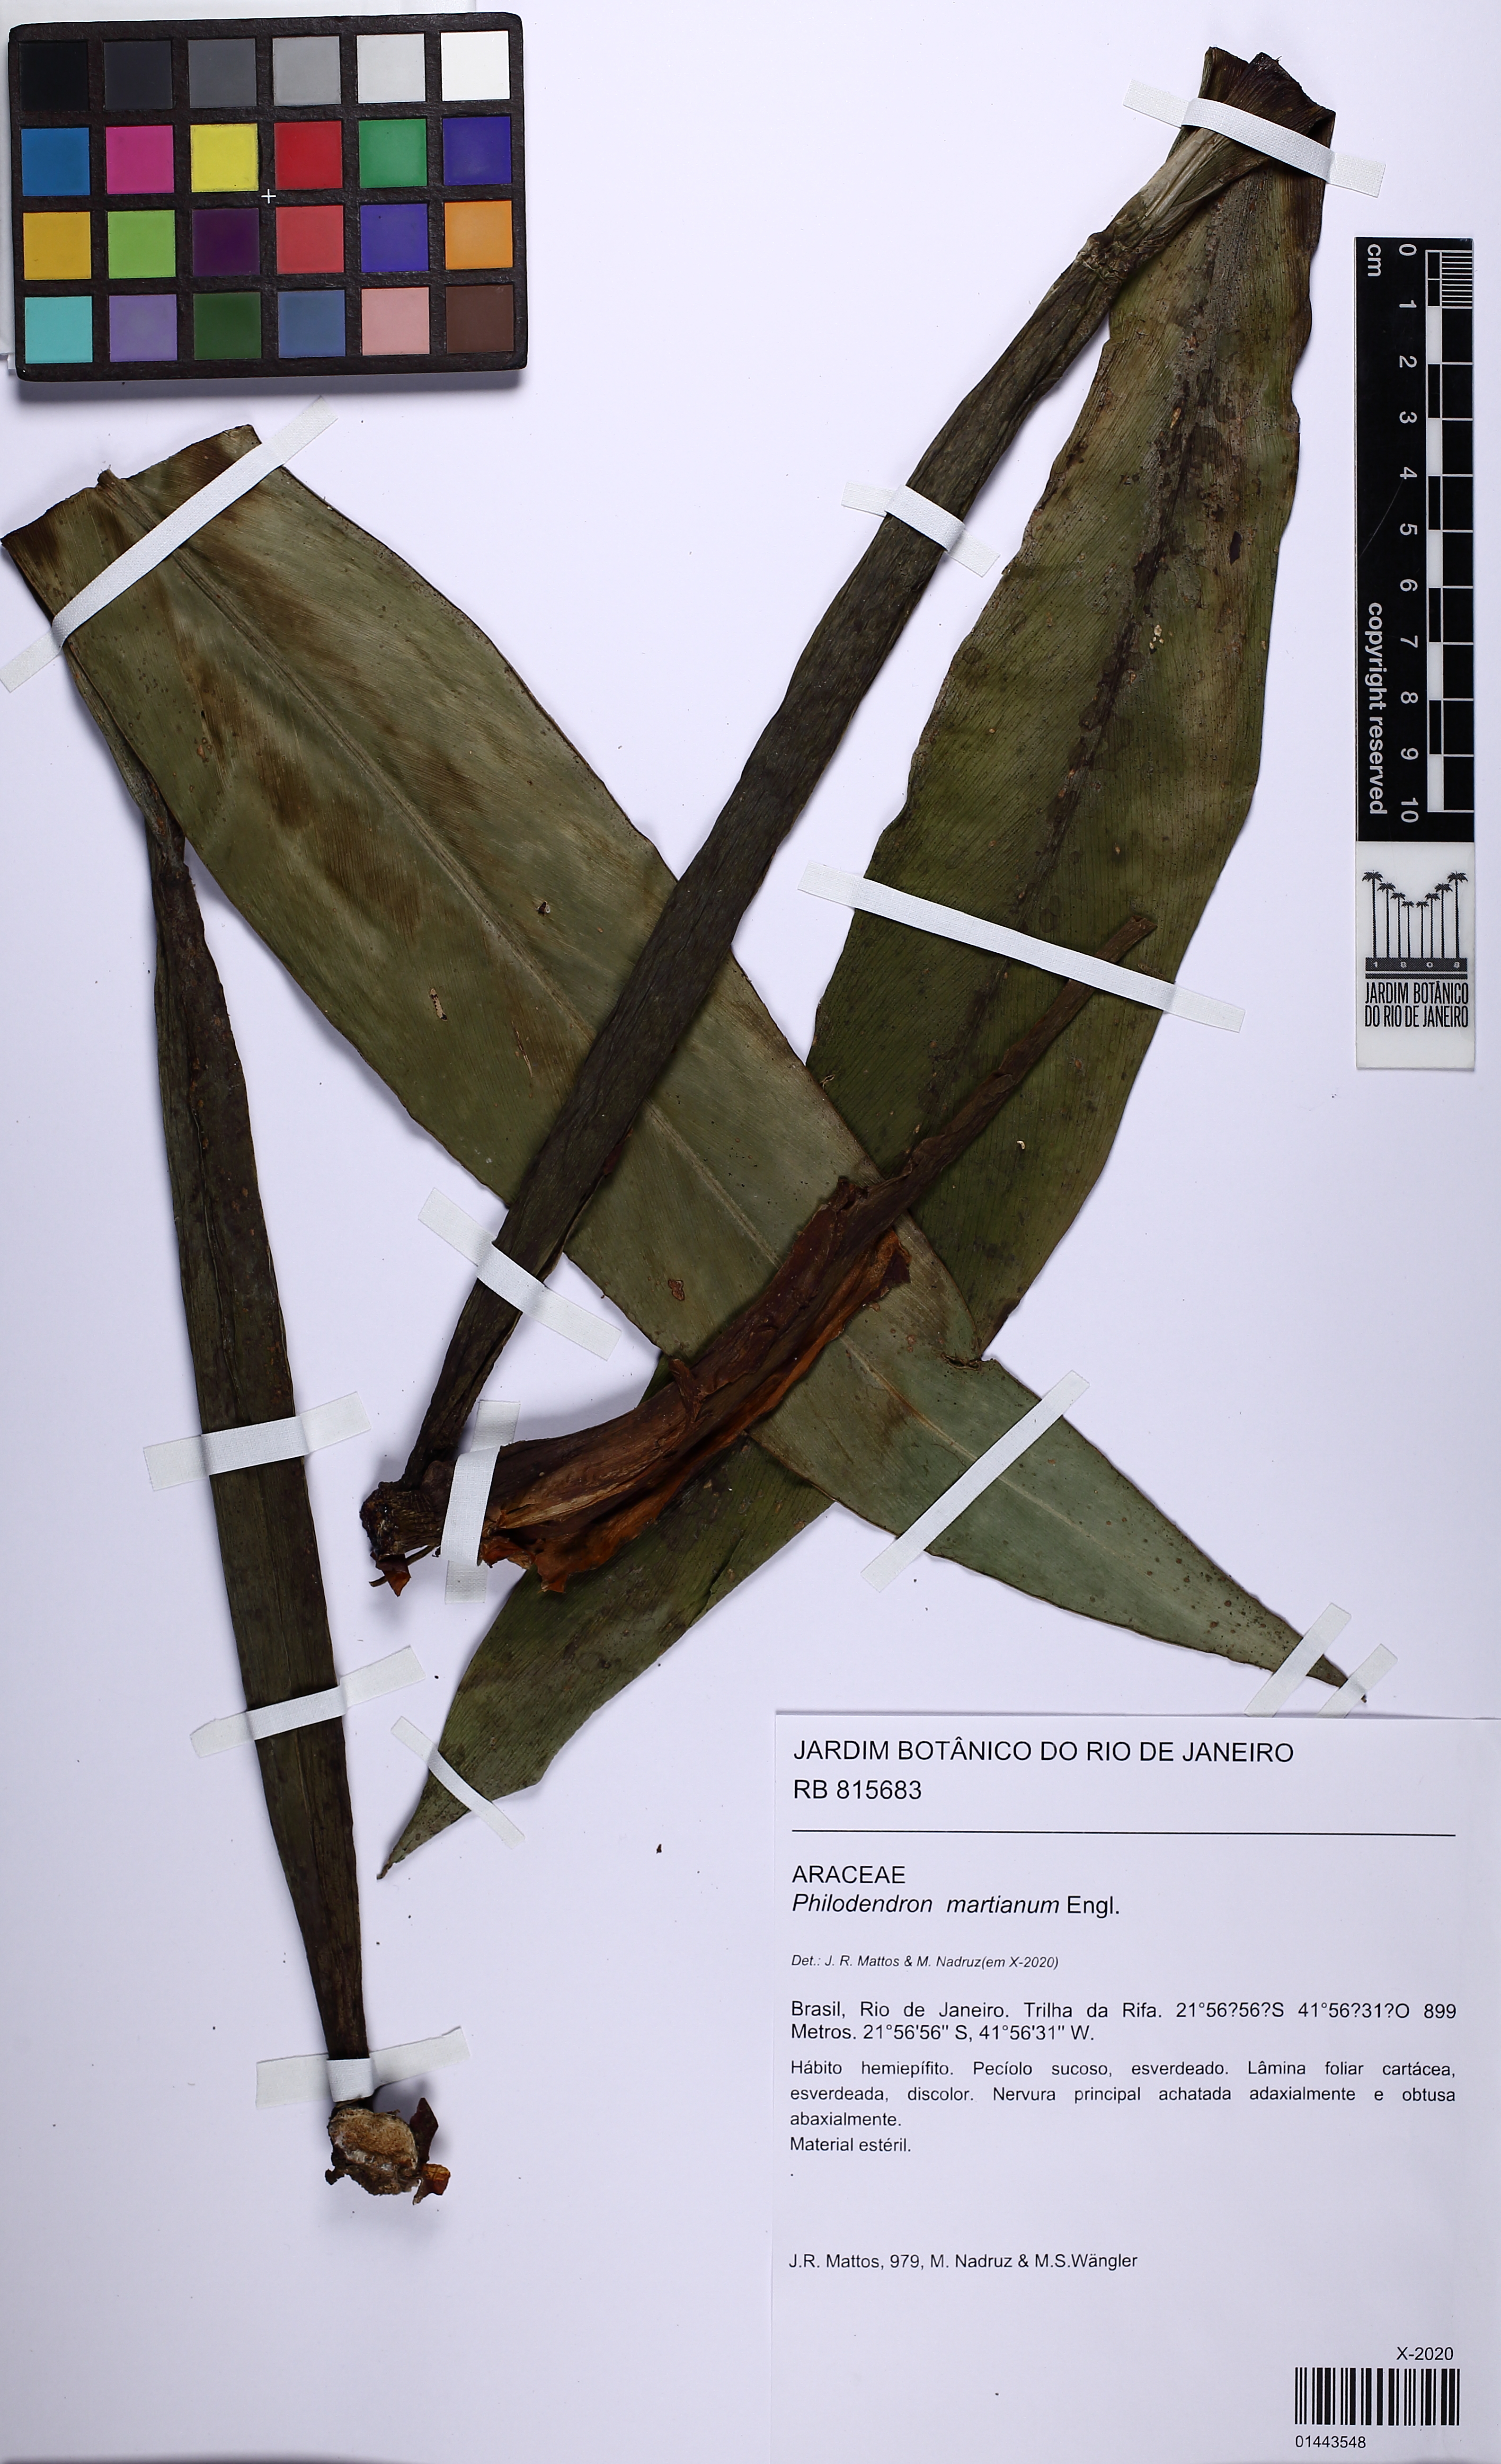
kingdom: Plantae
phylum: Tracheophyta
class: Liliopsida
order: Alismatales
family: Araceae
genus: Philodendron
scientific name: Philodendron martianum
